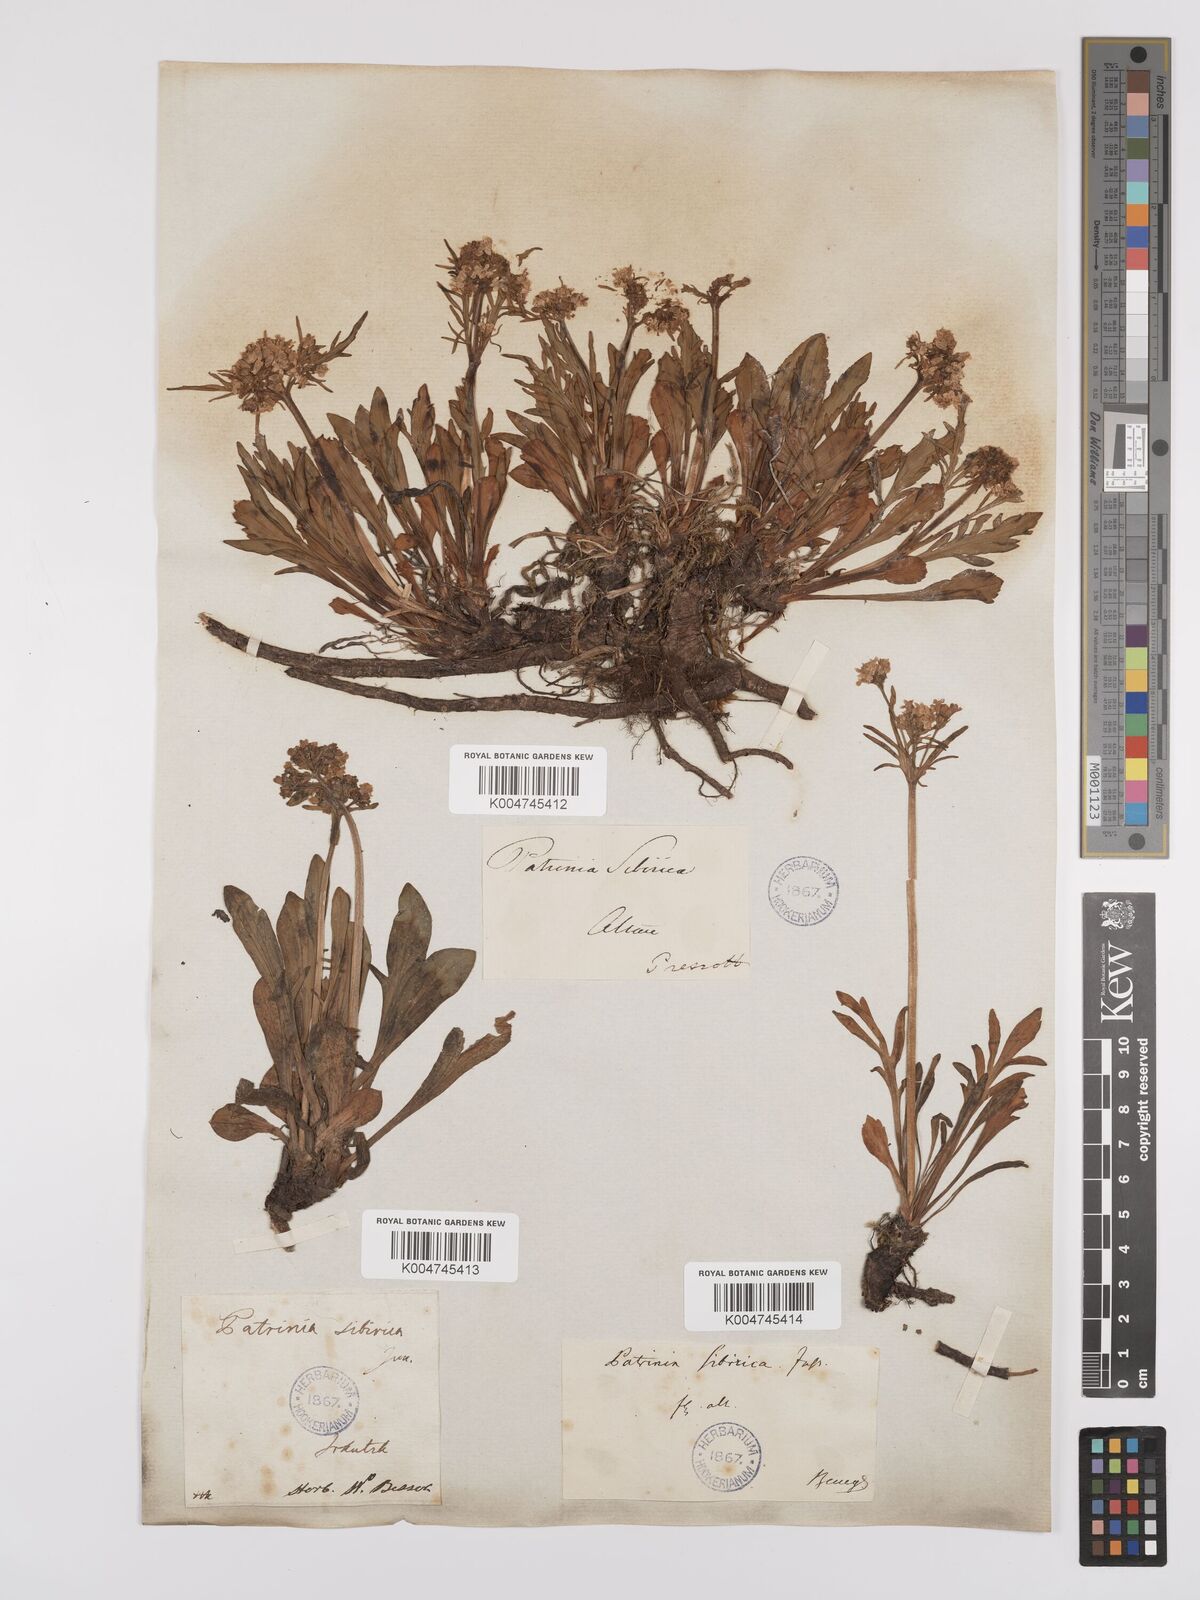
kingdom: Plantae
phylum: Tracheophyta
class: Magnoliopsida
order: Dipsacales
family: Caprifoliaceae
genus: Patrinia
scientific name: Patrinia sibirica
